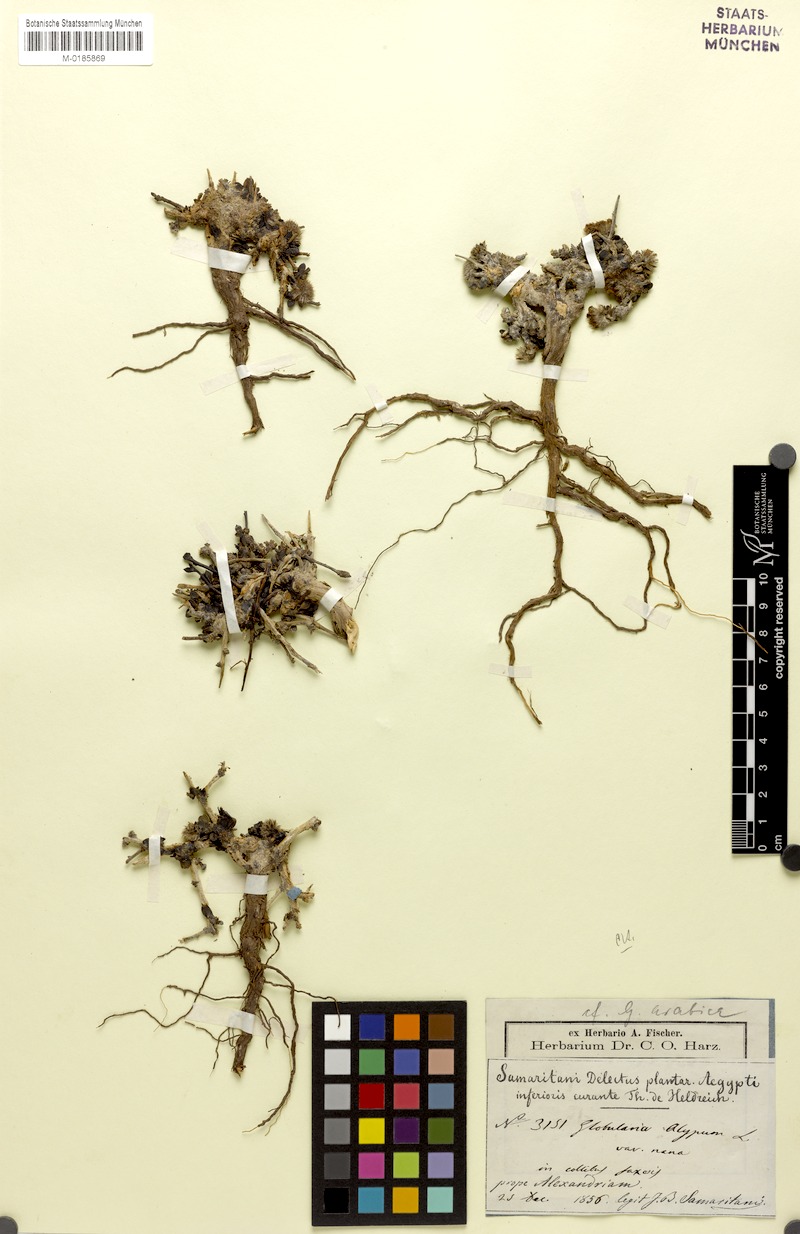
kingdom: Plantae
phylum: Tracheophyta
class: Magnoliopsida
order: Lamiales
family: Plantaginaceae
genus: Globularia
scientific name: Globularia arabica
